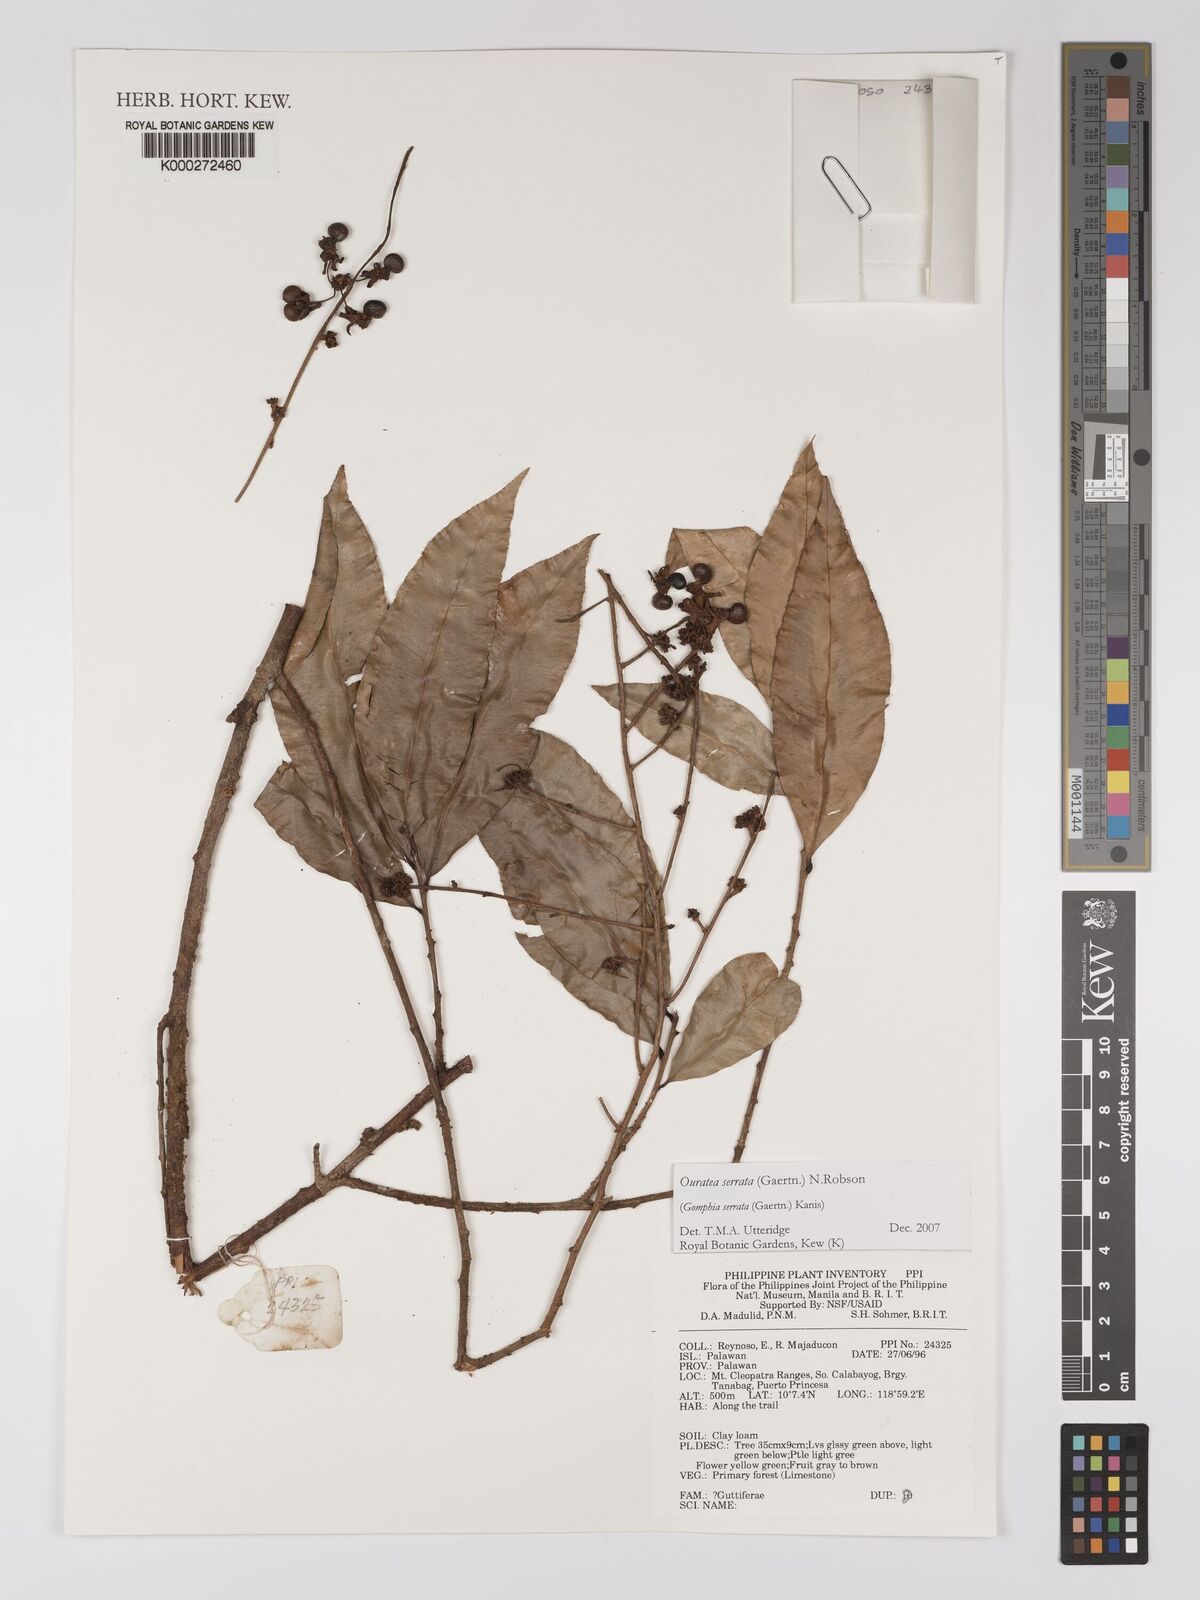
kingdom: Plantae
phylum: Tracheophyta
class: Magnoliopsida
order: Malpighiales
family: Ochnaceae
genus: Gomphia
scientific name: Gomphia serrata
